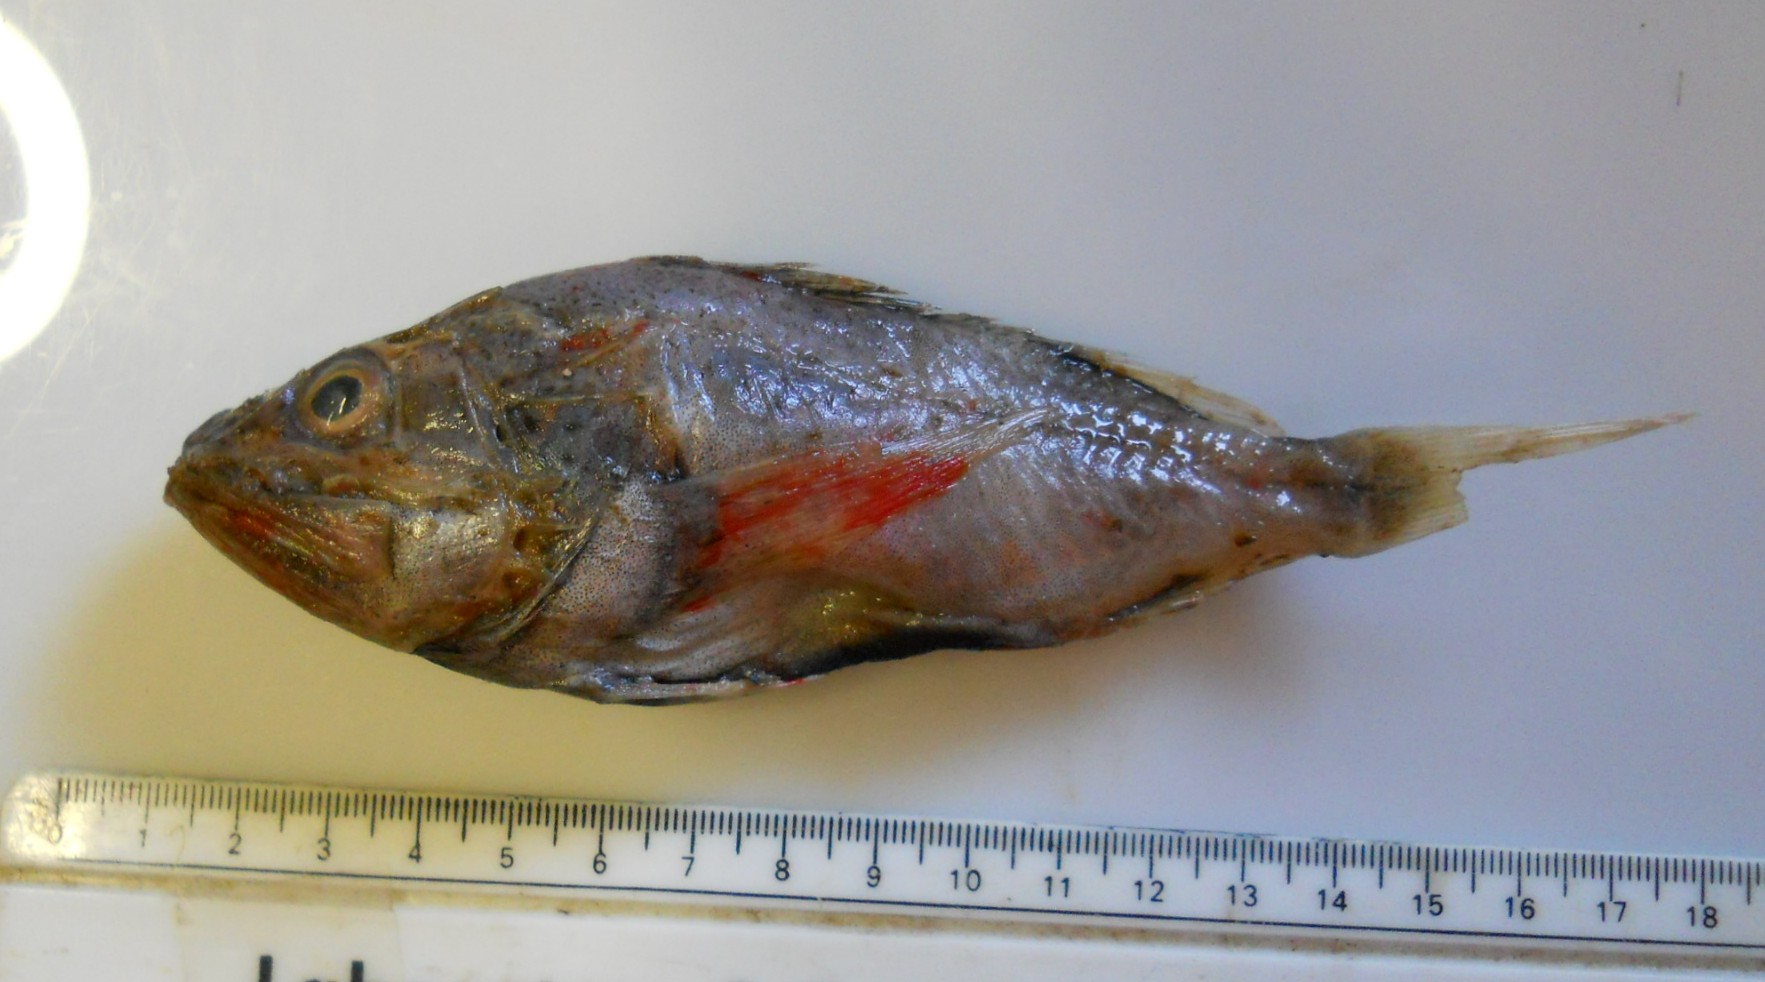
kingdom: Animalia
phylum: Chordata
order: Scorpaeniformes
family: Setarchidae
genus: Setarches
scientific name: Setarches guentheri
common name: Deepwater scorpionfish
